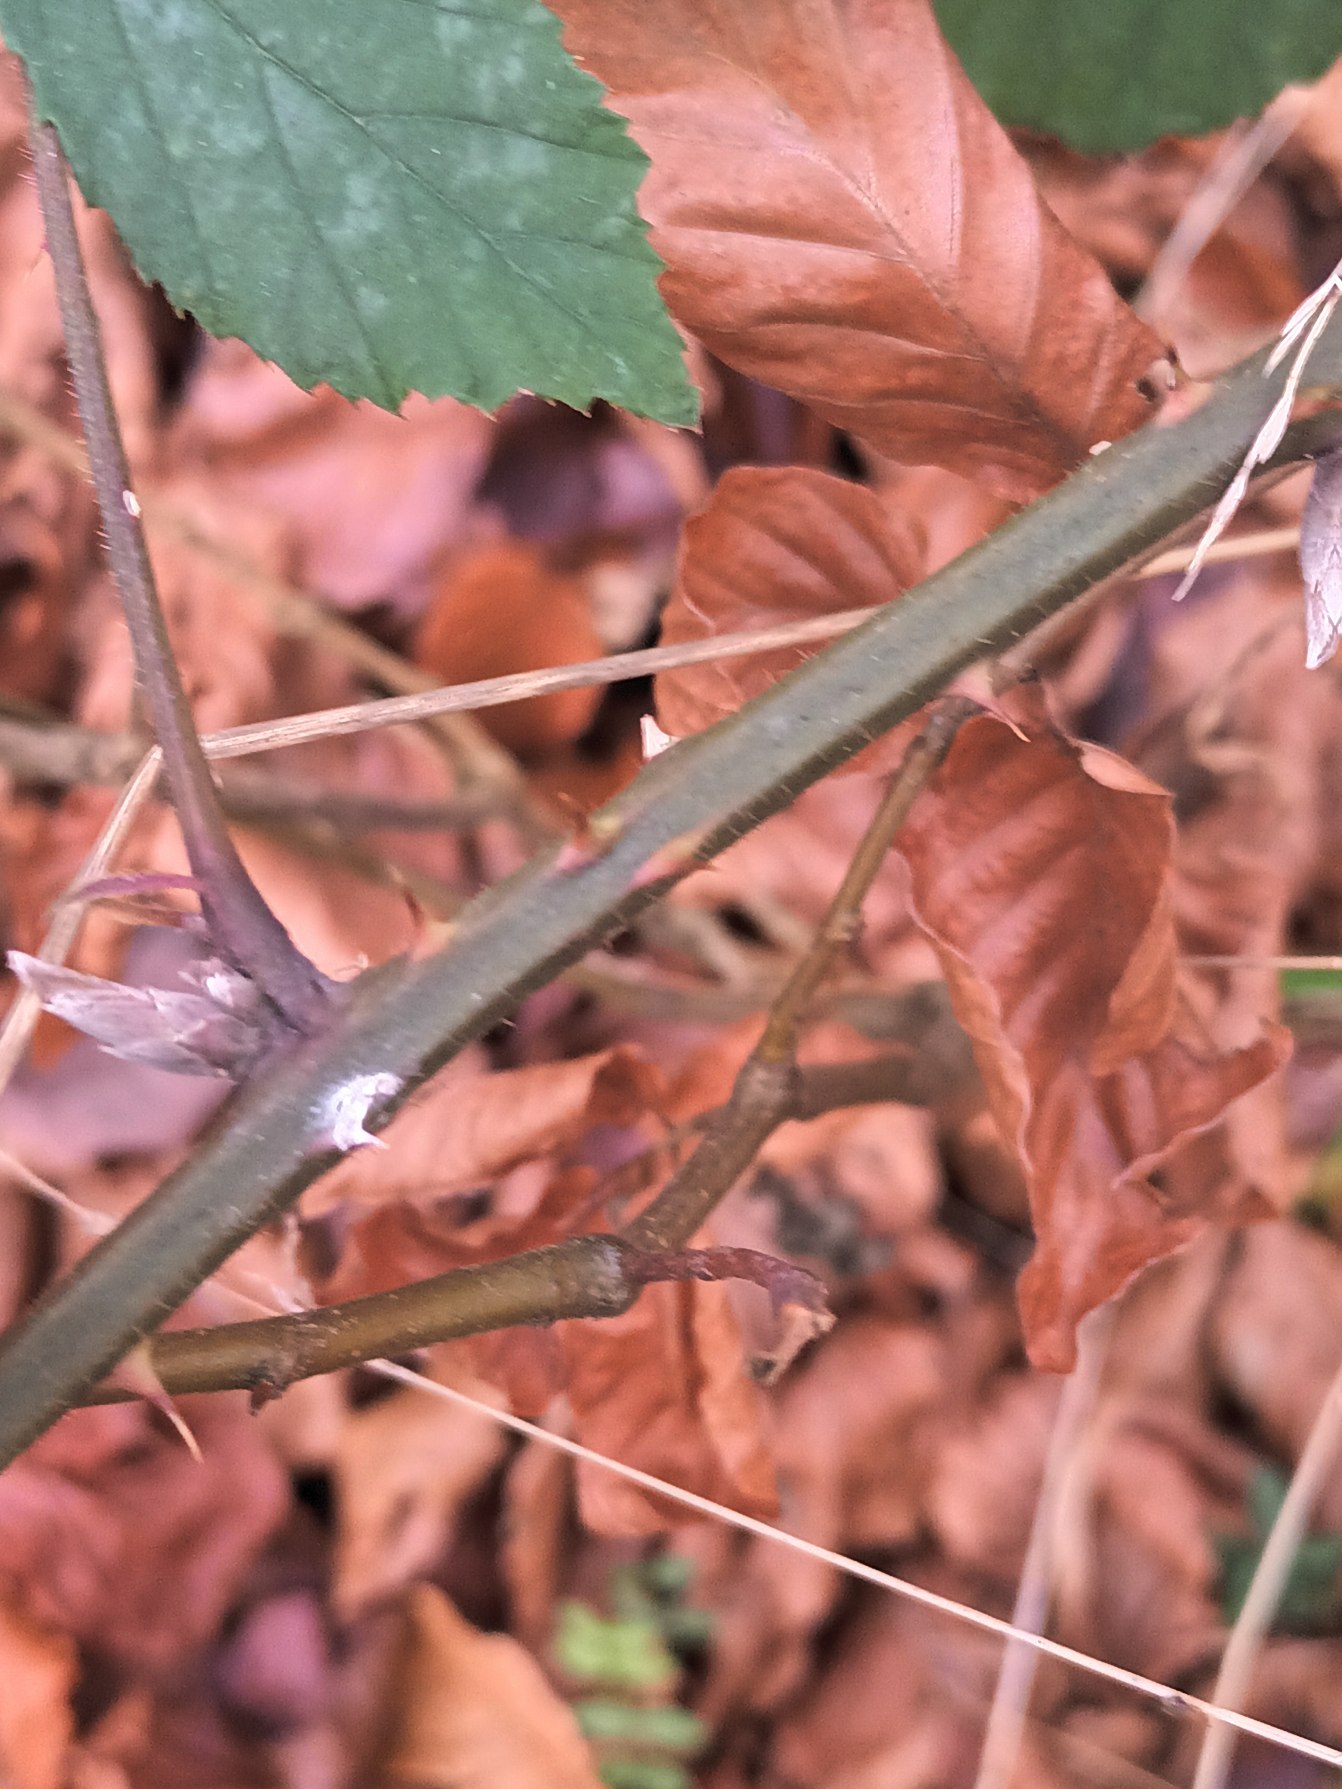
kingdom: Plantae
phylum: Tracheophyta
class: Magnoliopsida
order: Rosales
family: Rosaceae
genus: Rubus
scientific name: Rubus radula
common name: Rasperu brombær
